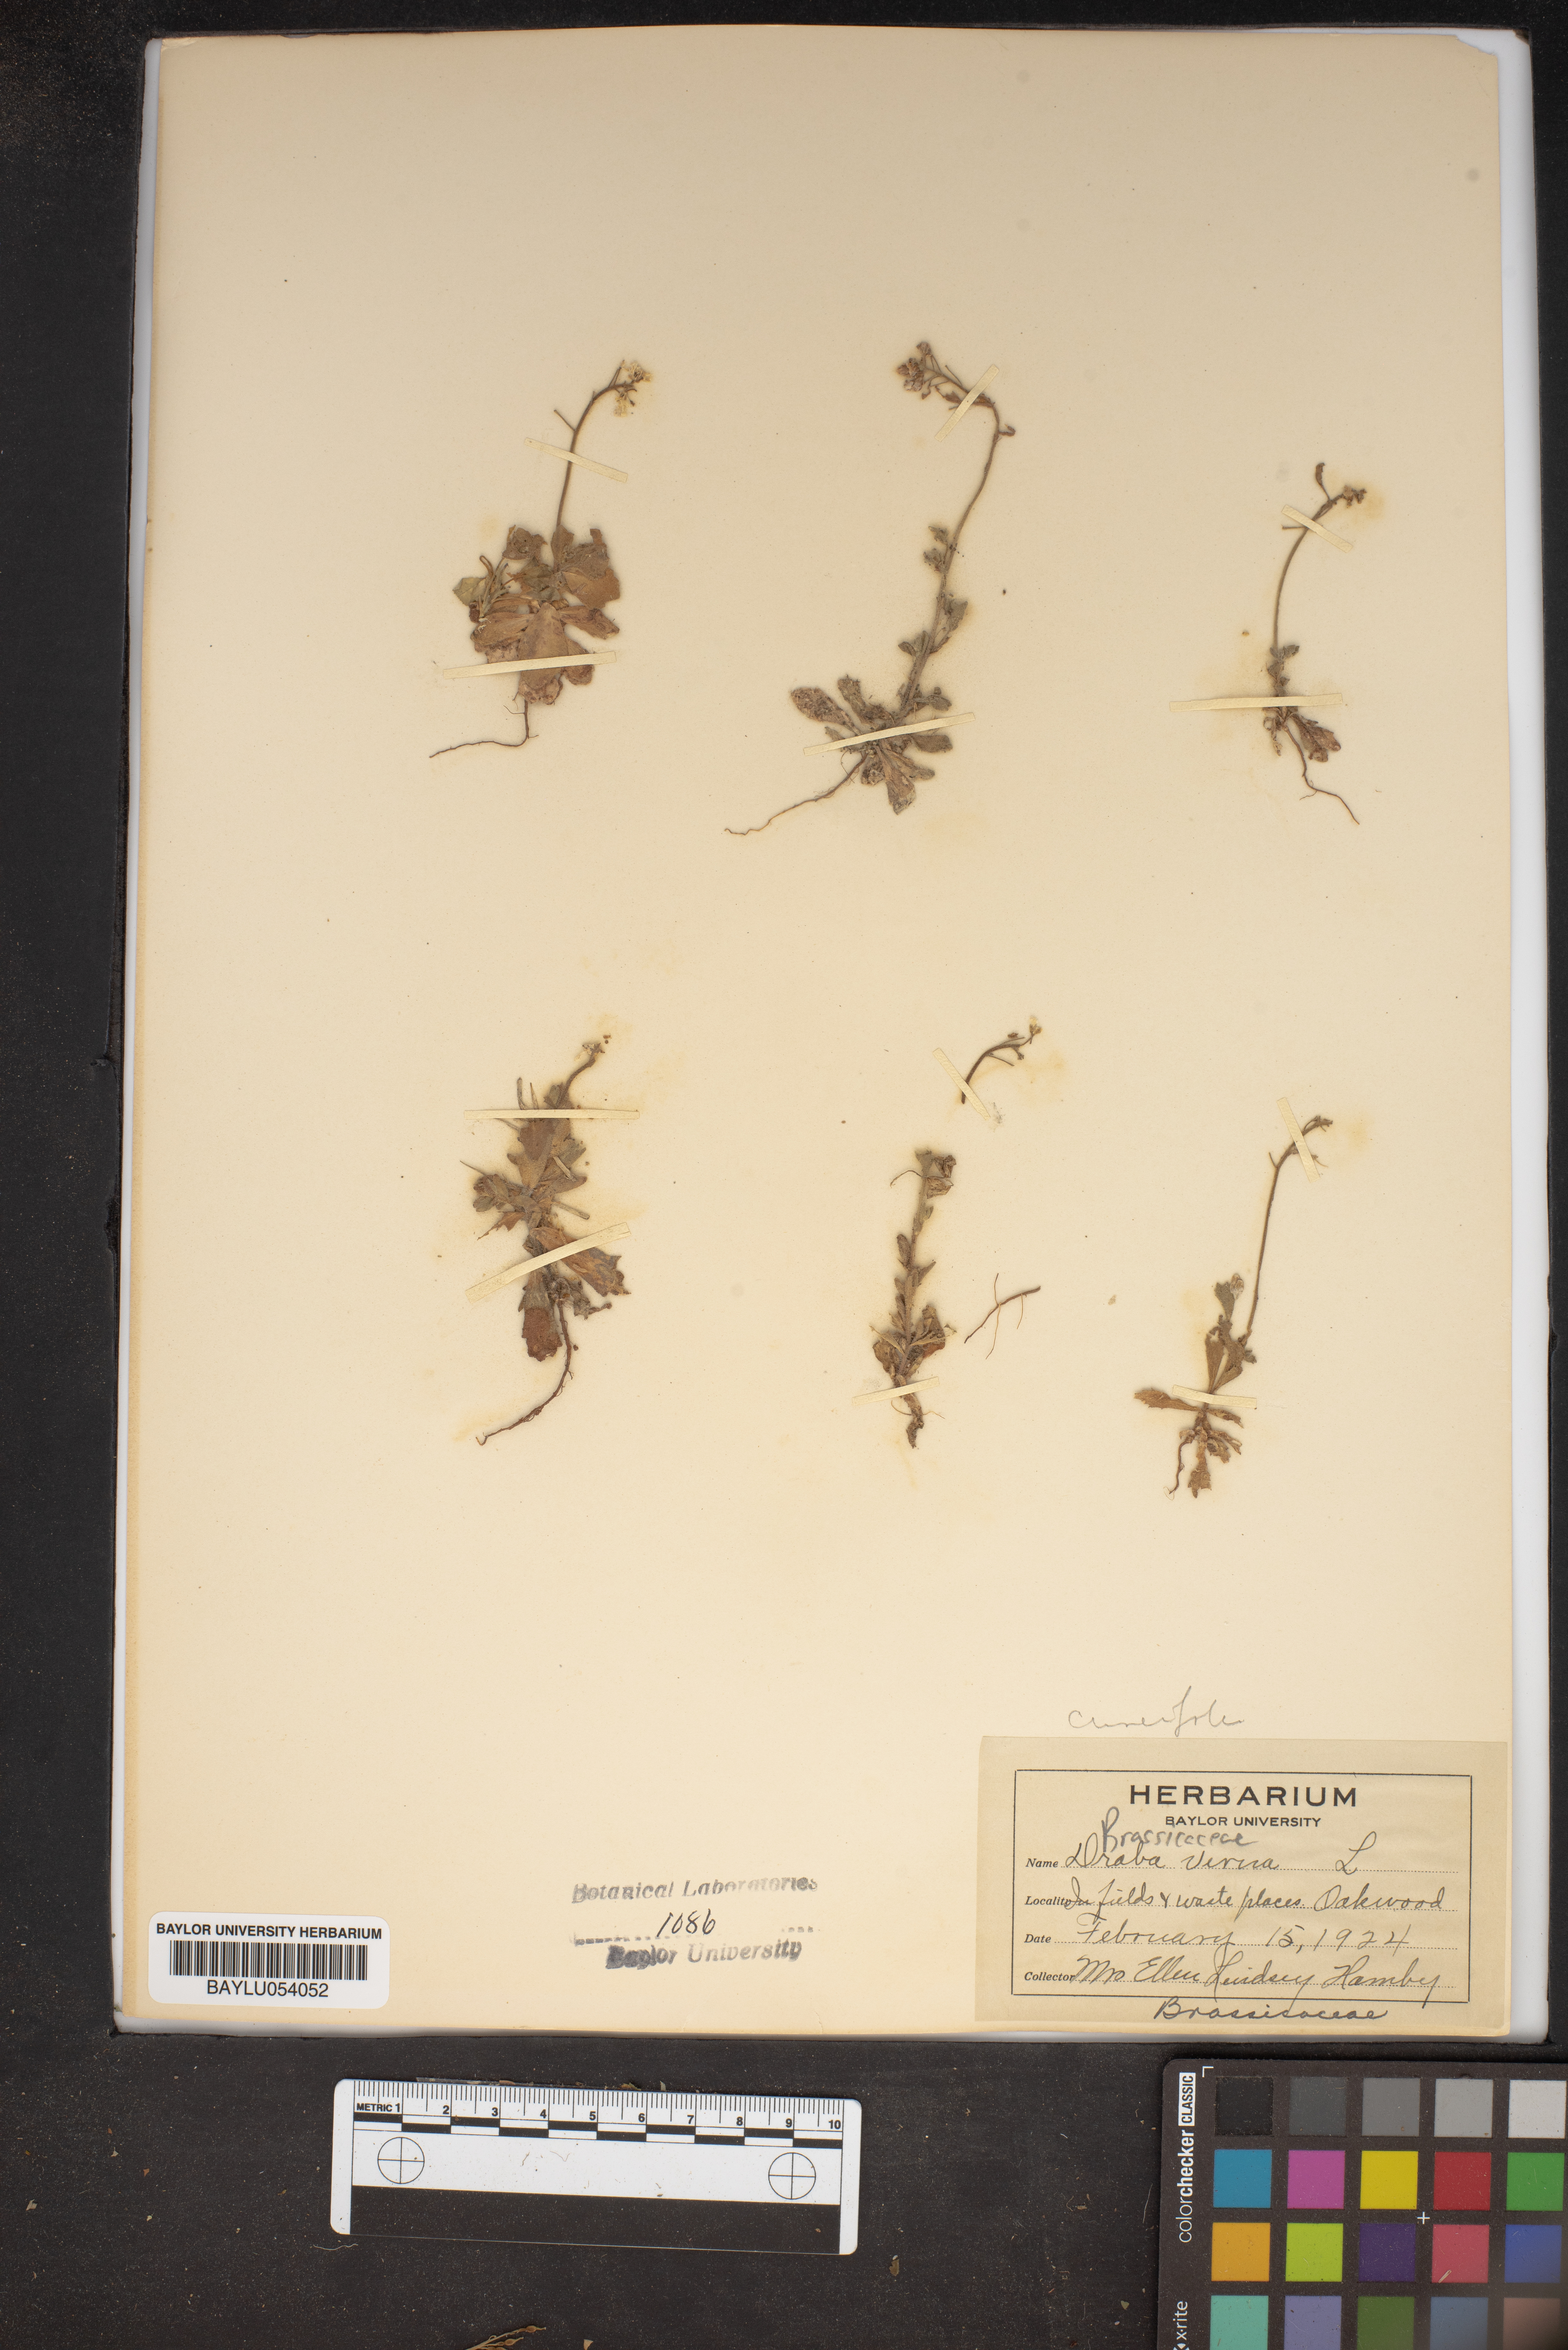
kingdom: Plantae
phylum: Tracheophyta
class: Magnoliopsida
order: Brassicales
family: Brassicaceae
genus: Draba
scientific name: Draba
